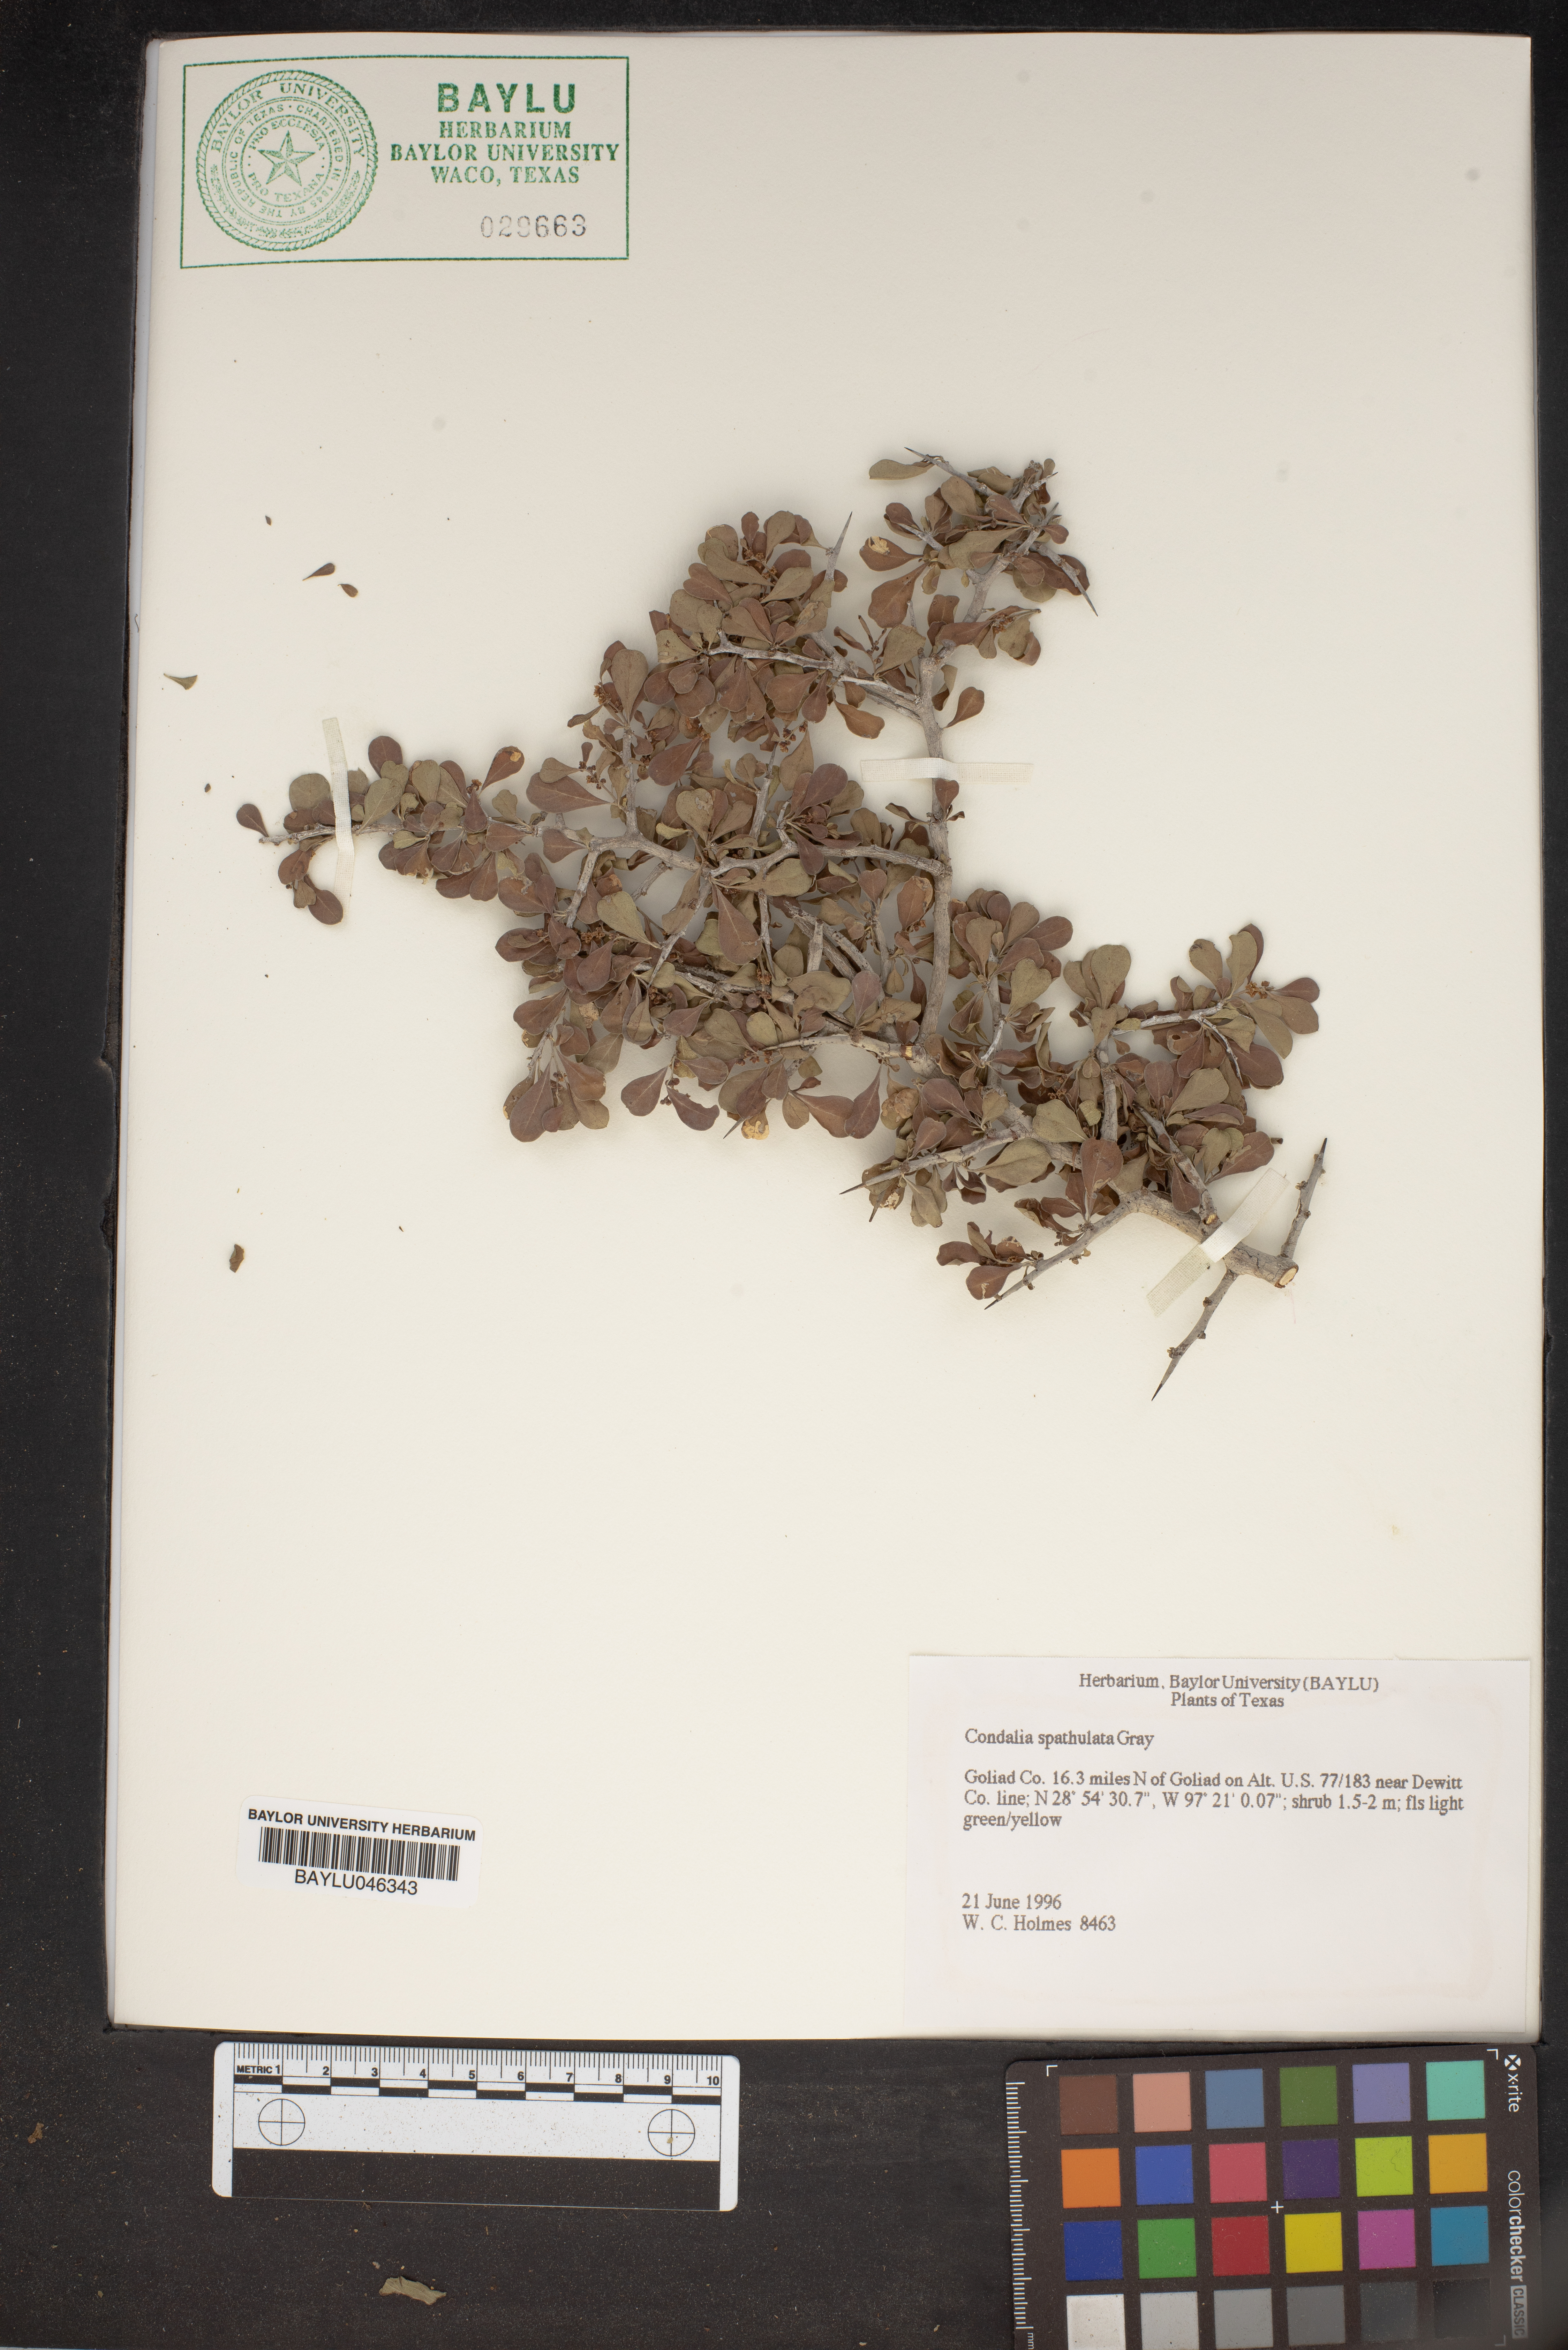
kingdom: Plantae
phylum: Tracheophyta
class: Magnoliopsida
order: Rosales
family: Rhamnaceae
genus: Condalia
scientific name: Condalia spathulata
